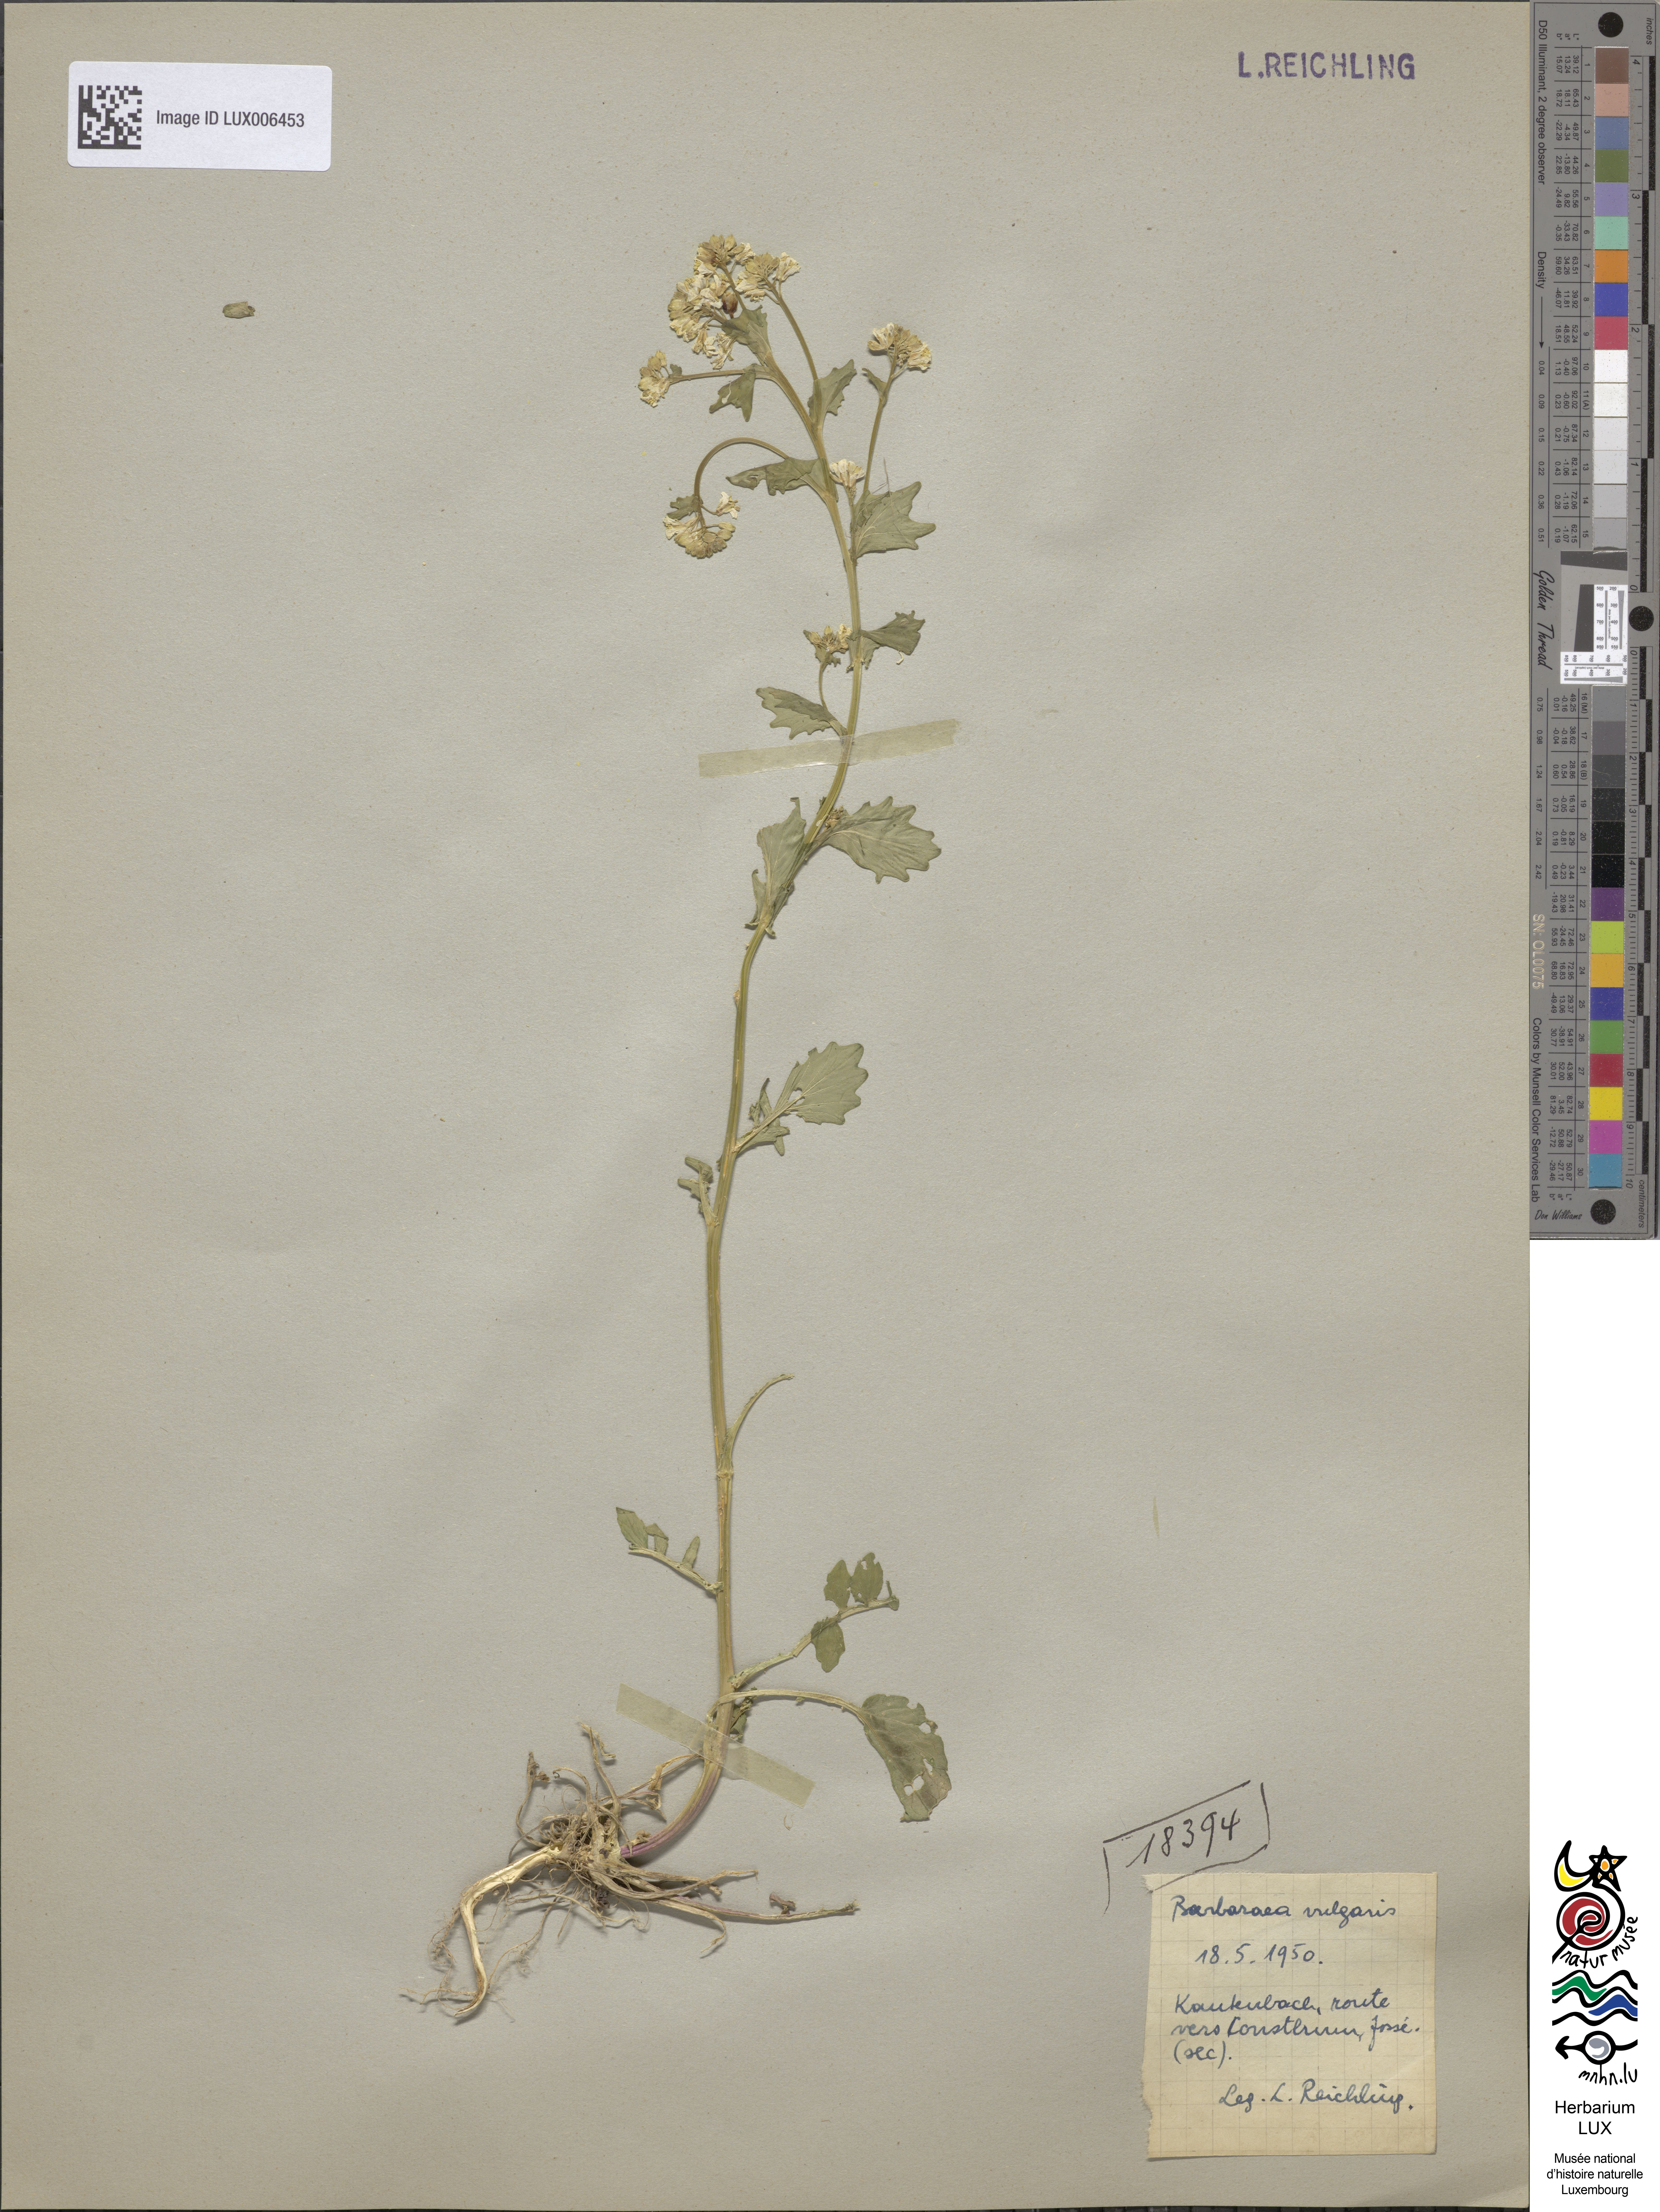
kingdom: Plantae
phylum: Tracheophyta
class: Magnoliopsida
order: Brassicales
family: Brassicaceae
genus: Barbarea
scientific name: Barbarea vulgaris
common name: Cressy-greens
